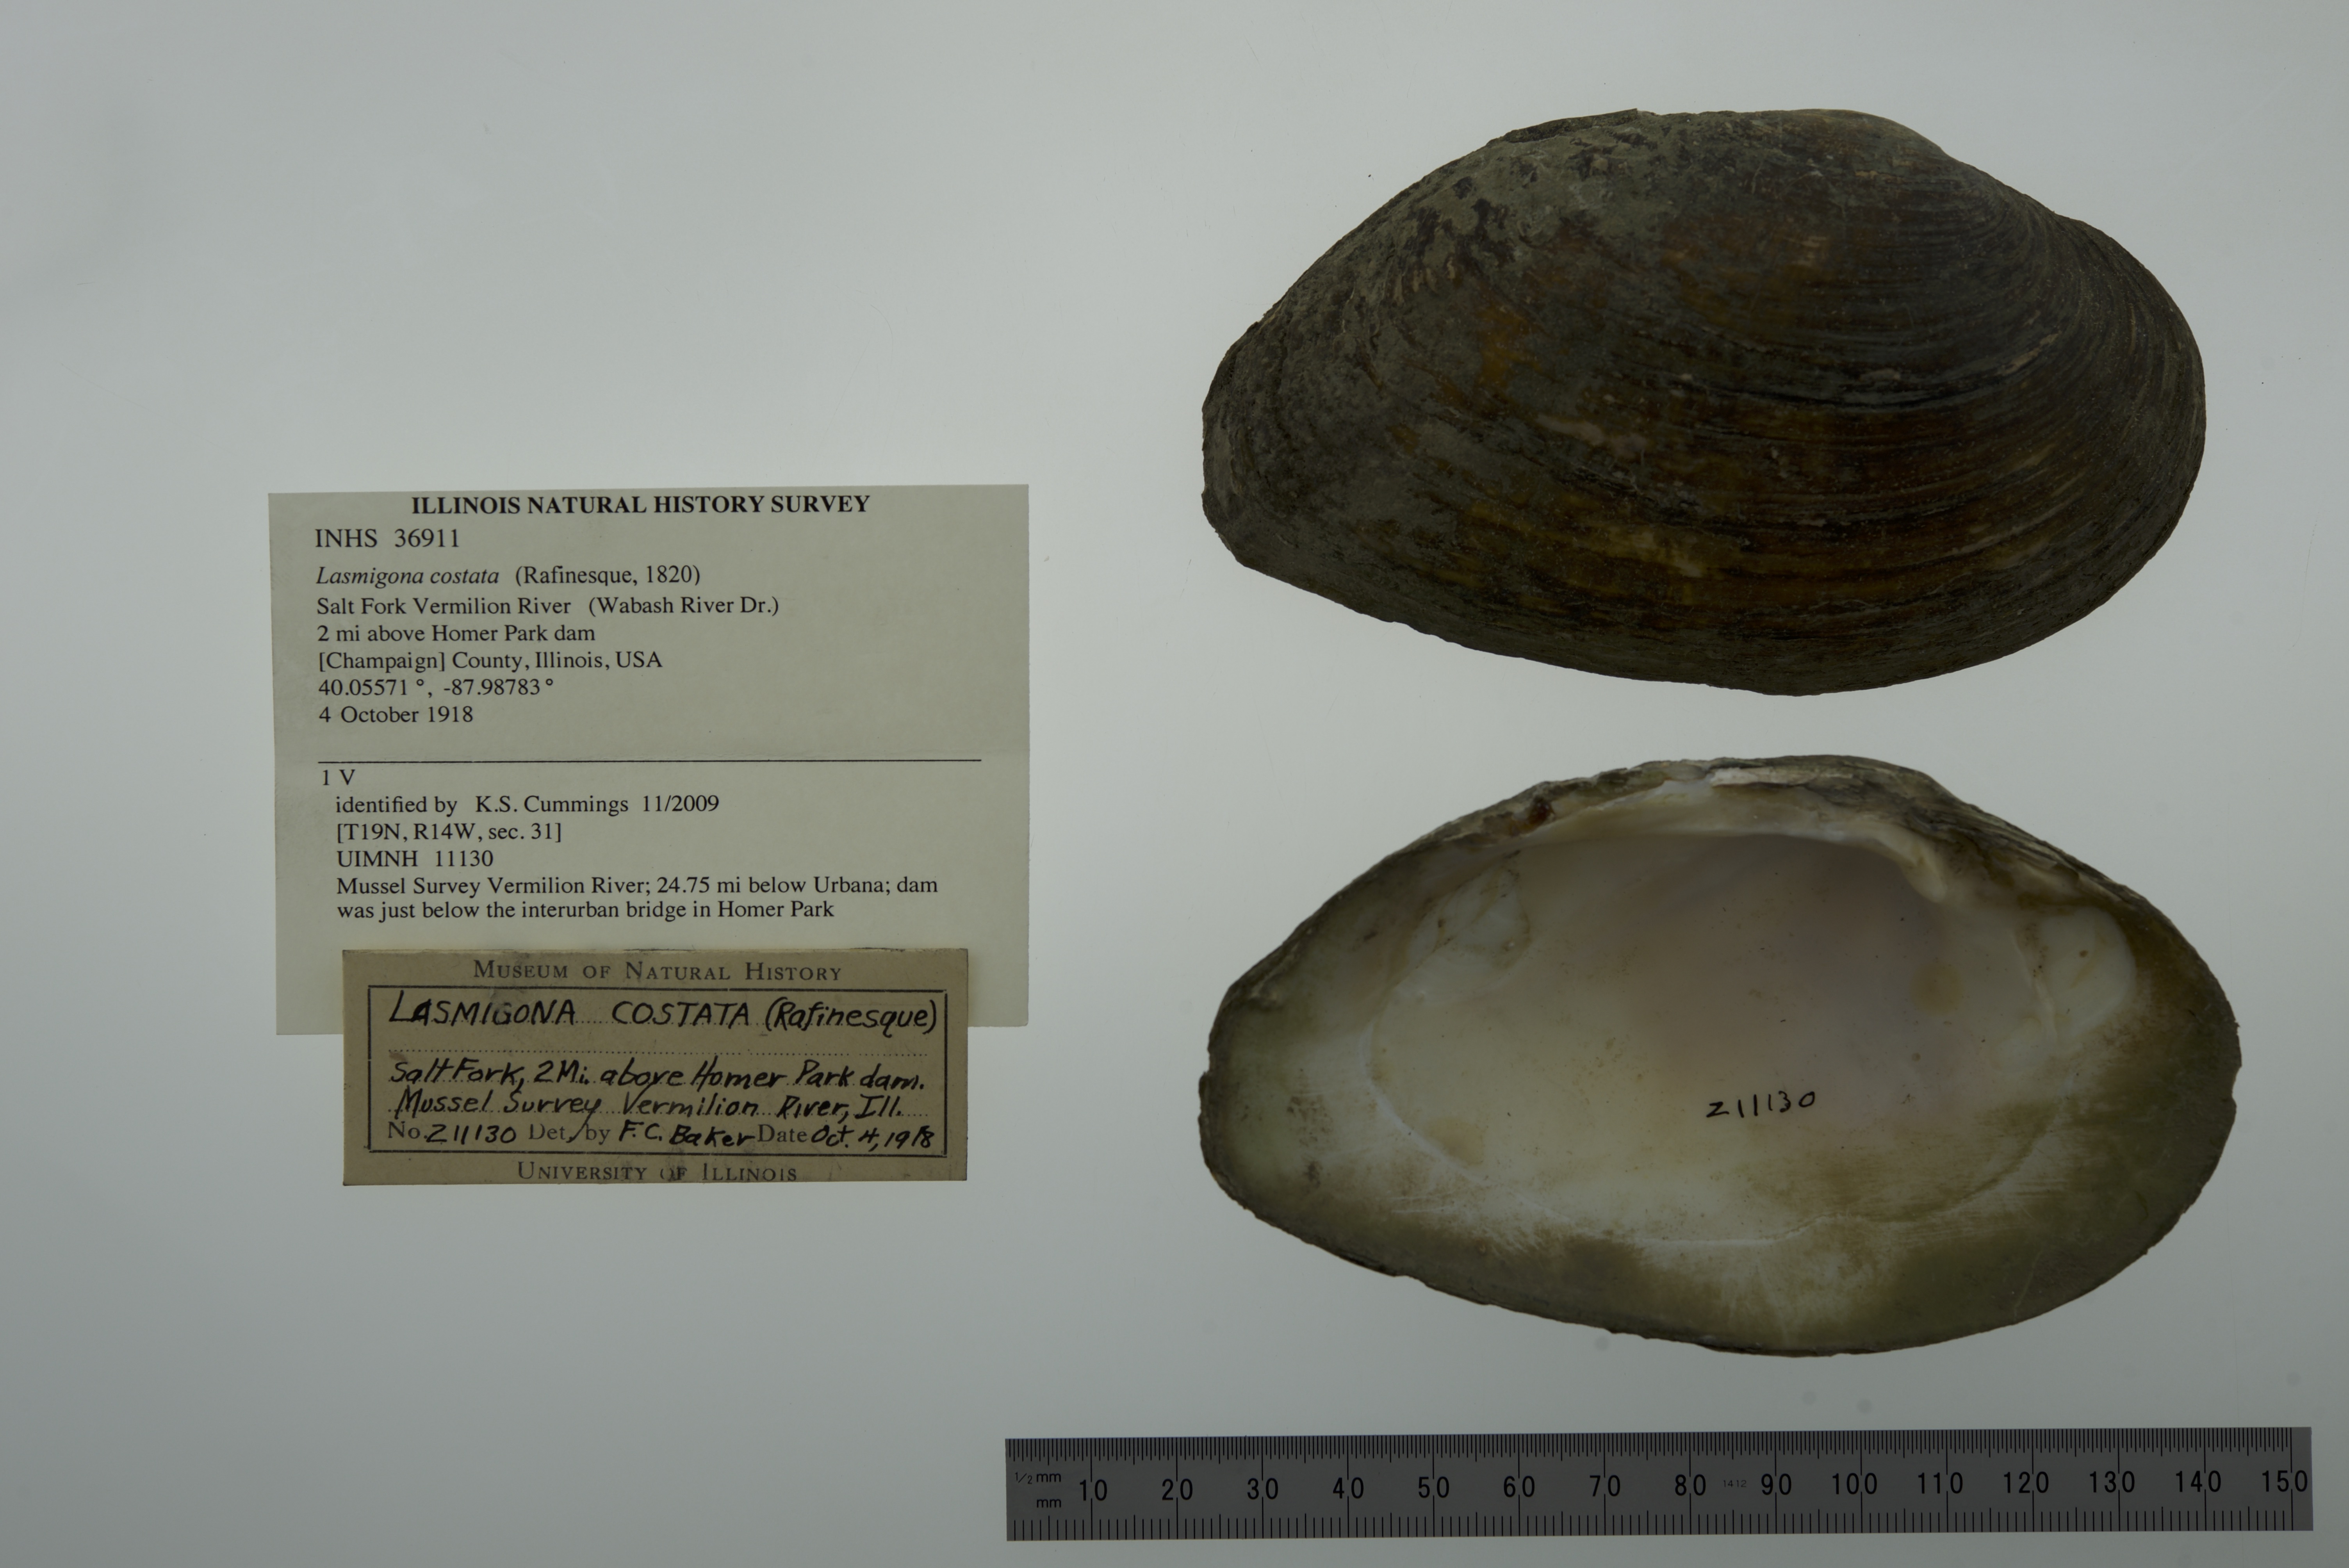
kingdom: Animalia
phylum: Mollusca
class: Bivalvia
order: Unionida
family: Unionidae
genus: Lasmigona
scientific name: Lasmigona costata
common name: Flutedshell
